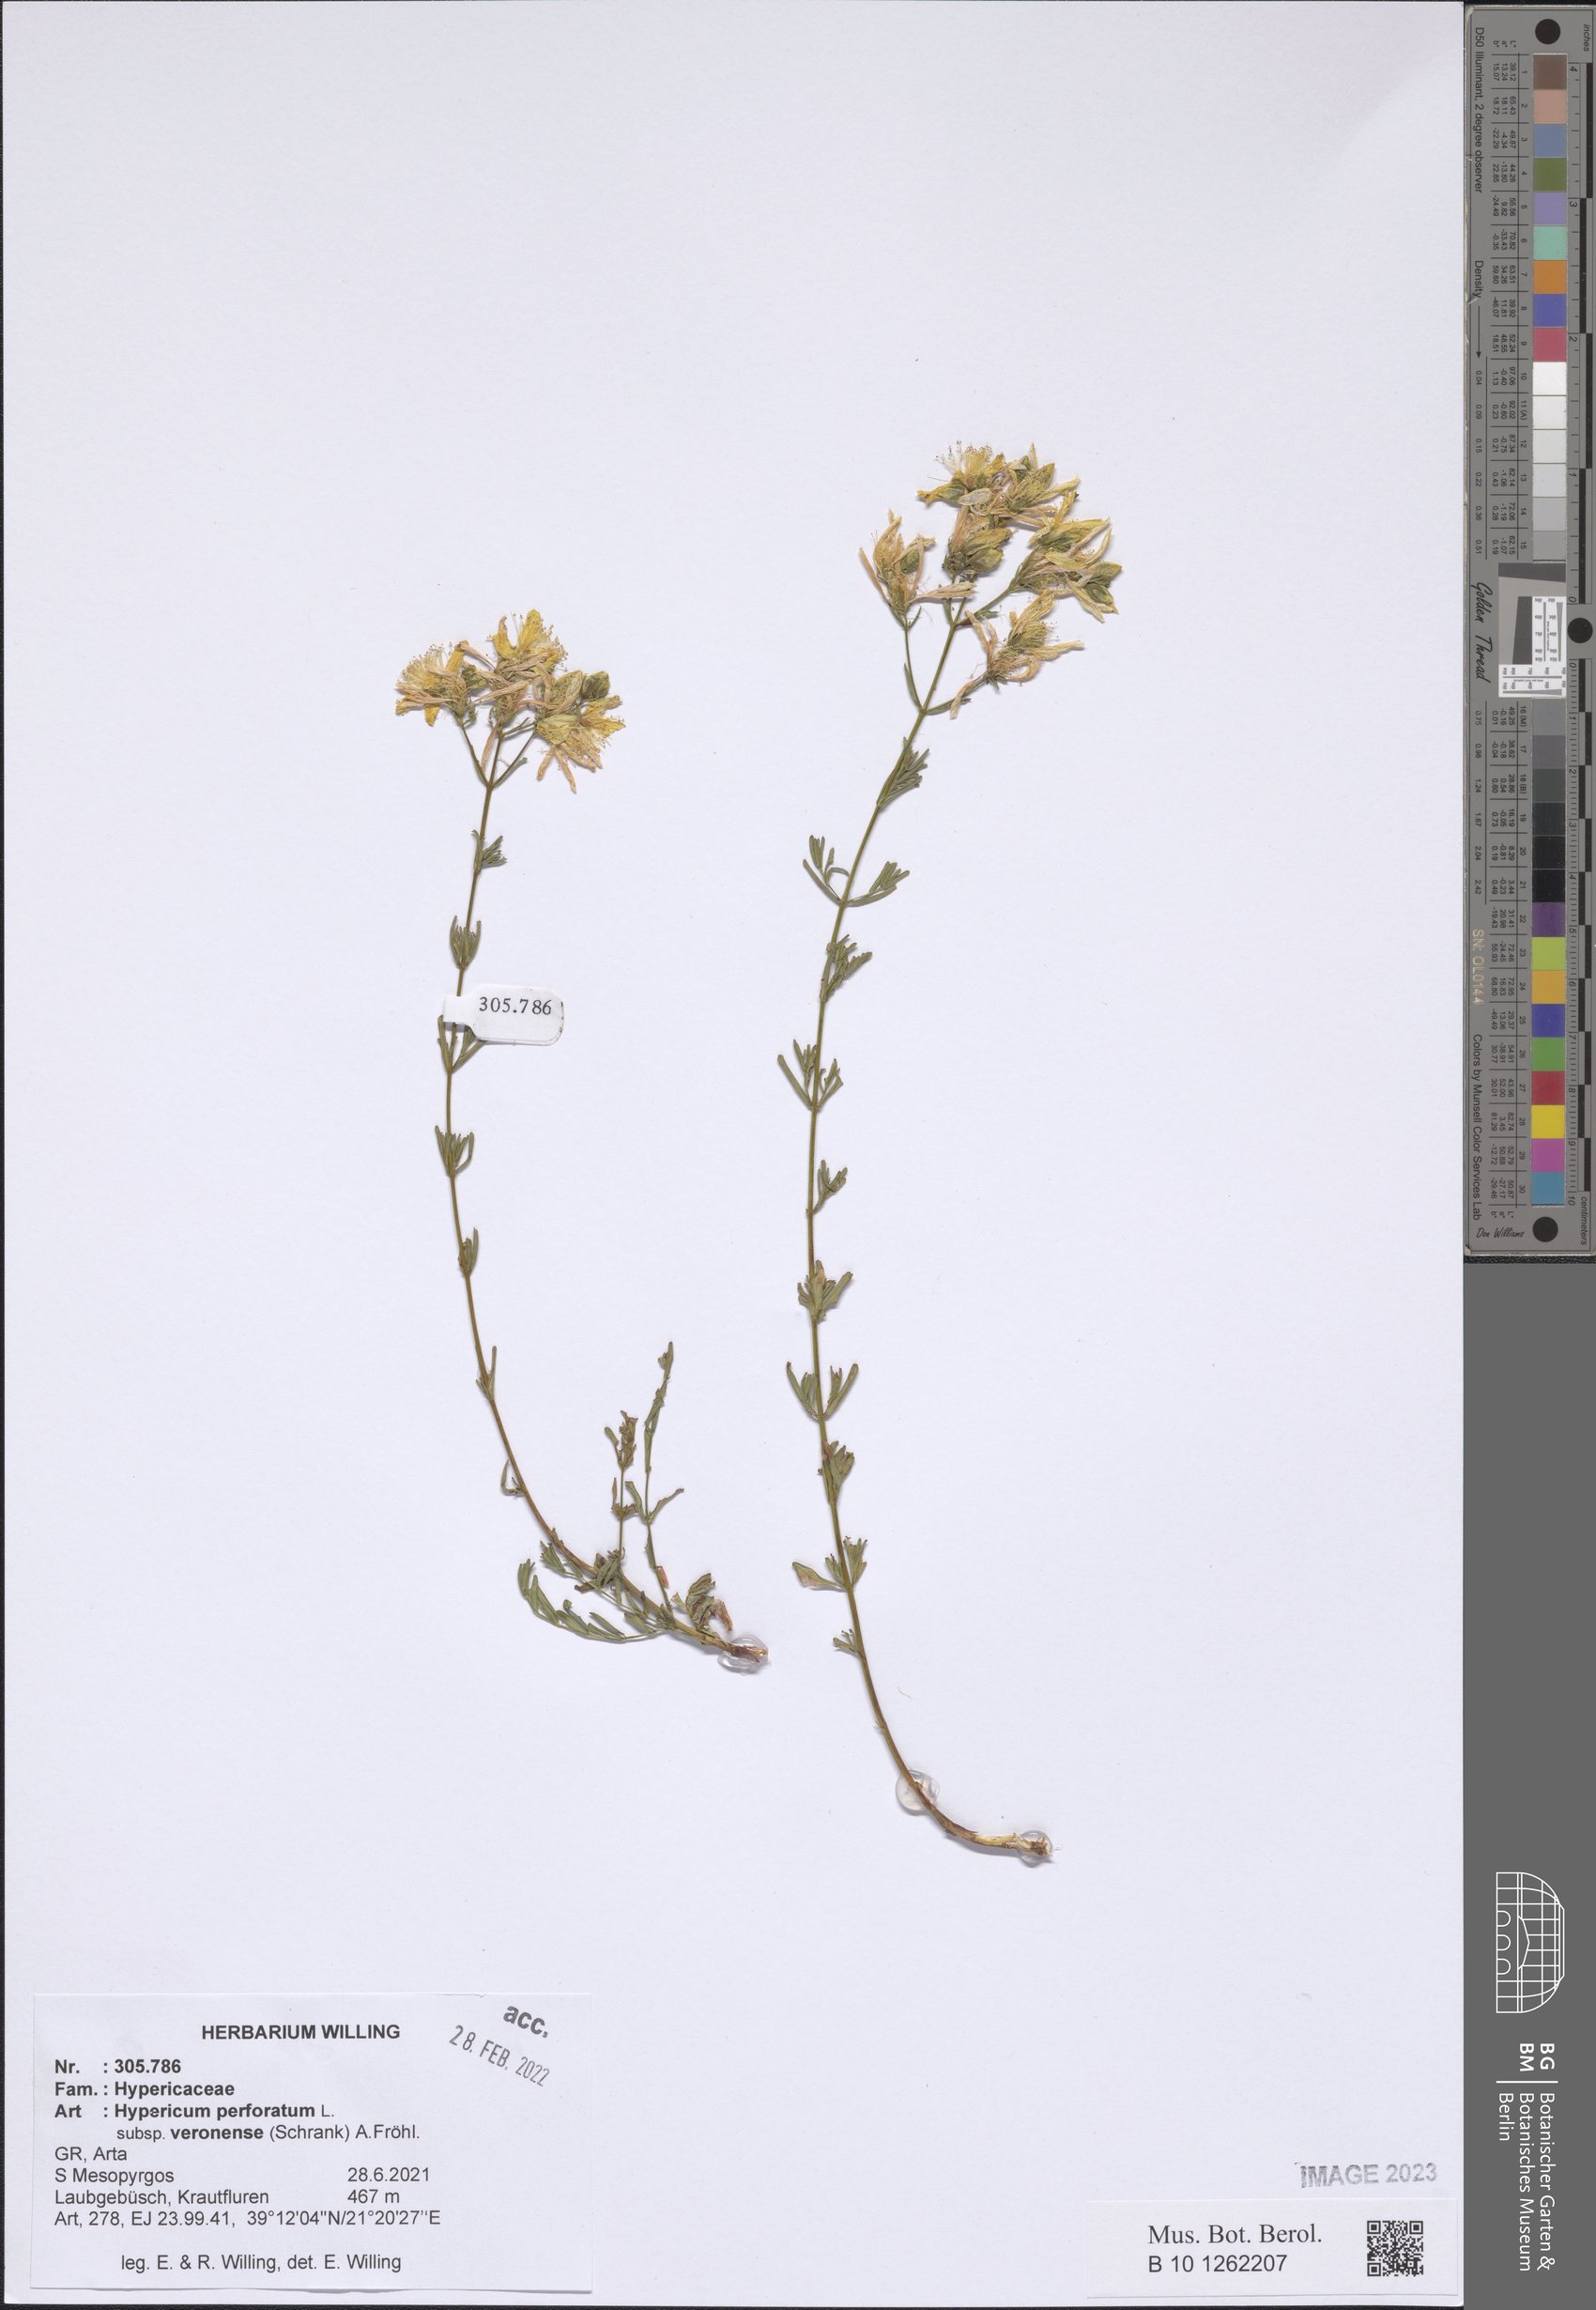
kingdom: Plantae
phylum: Tracheophyta
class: Magnoliopsida
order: Malpighiales
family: Hypericaceae
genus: Hypericum
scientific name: Hypericum veronense
